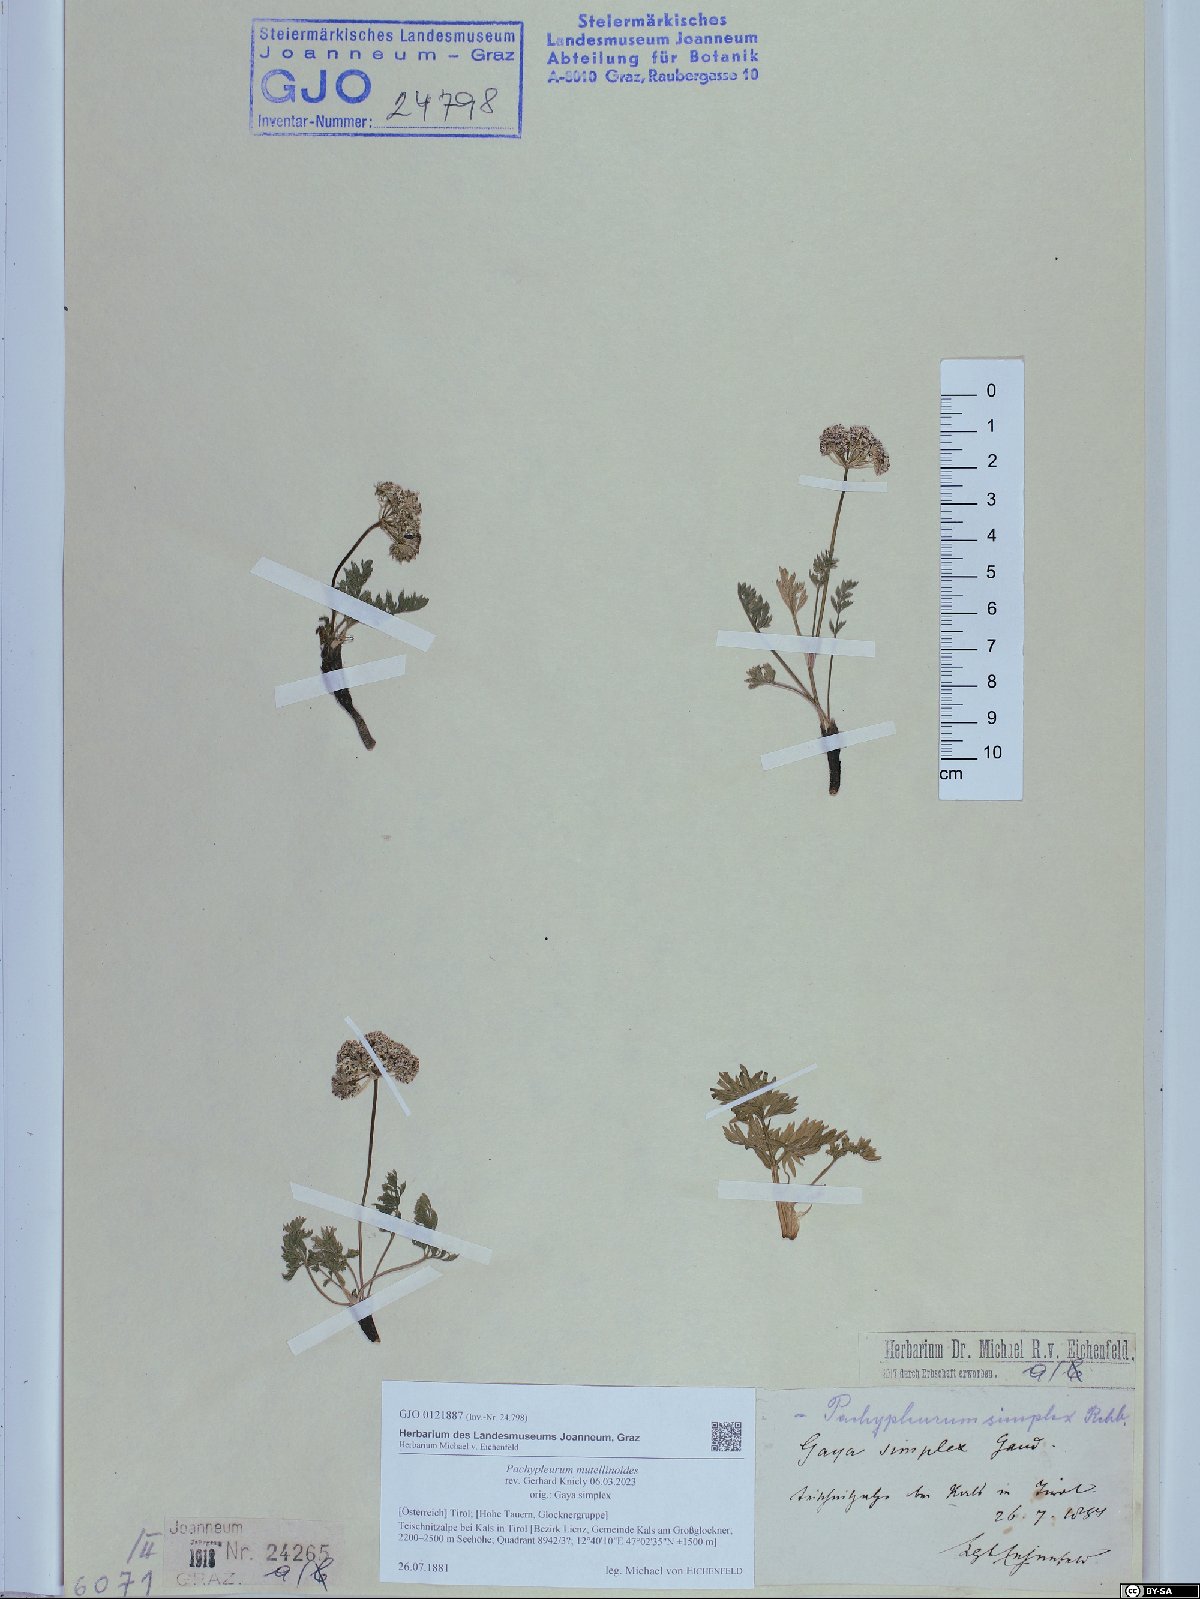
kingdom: Plantae
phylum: Tracheophyta
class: Magnoliopsida
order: Apiales
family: Apiaceae
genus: Pachypleurum
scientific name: Pachypleurum mutellinoides
